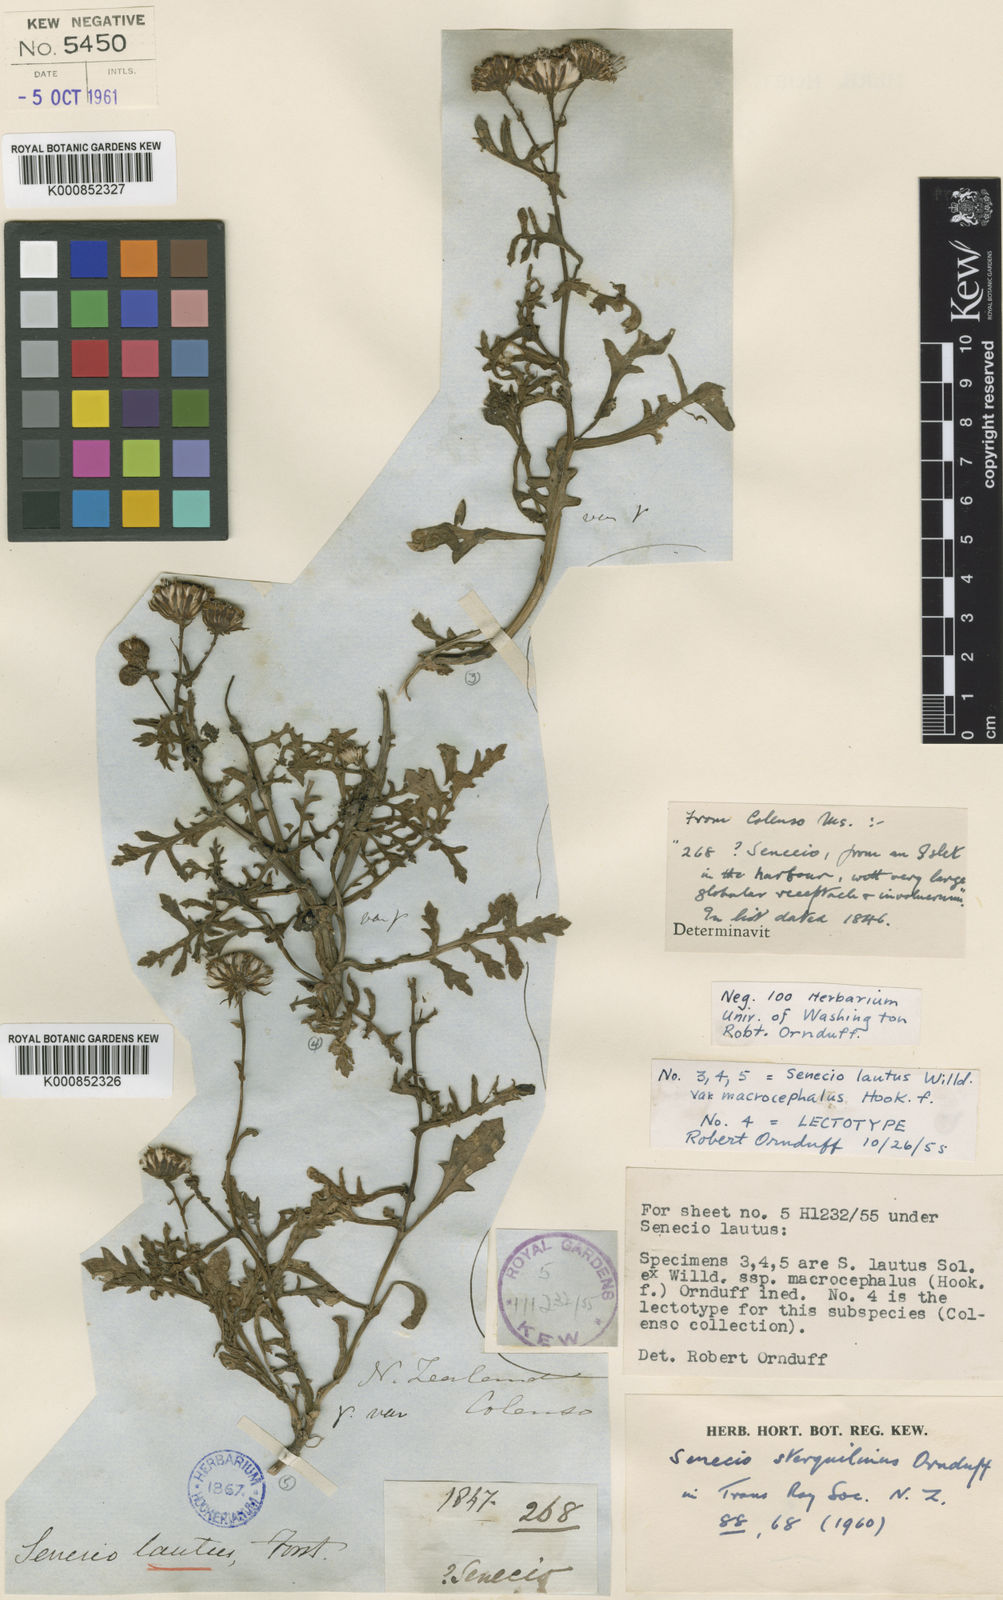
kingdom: Plantae
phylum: Tracheophyta
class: Magnoliopsida
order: Asterales
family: Asteraceae
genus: Senecio
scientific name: Senecio sterquilinus
